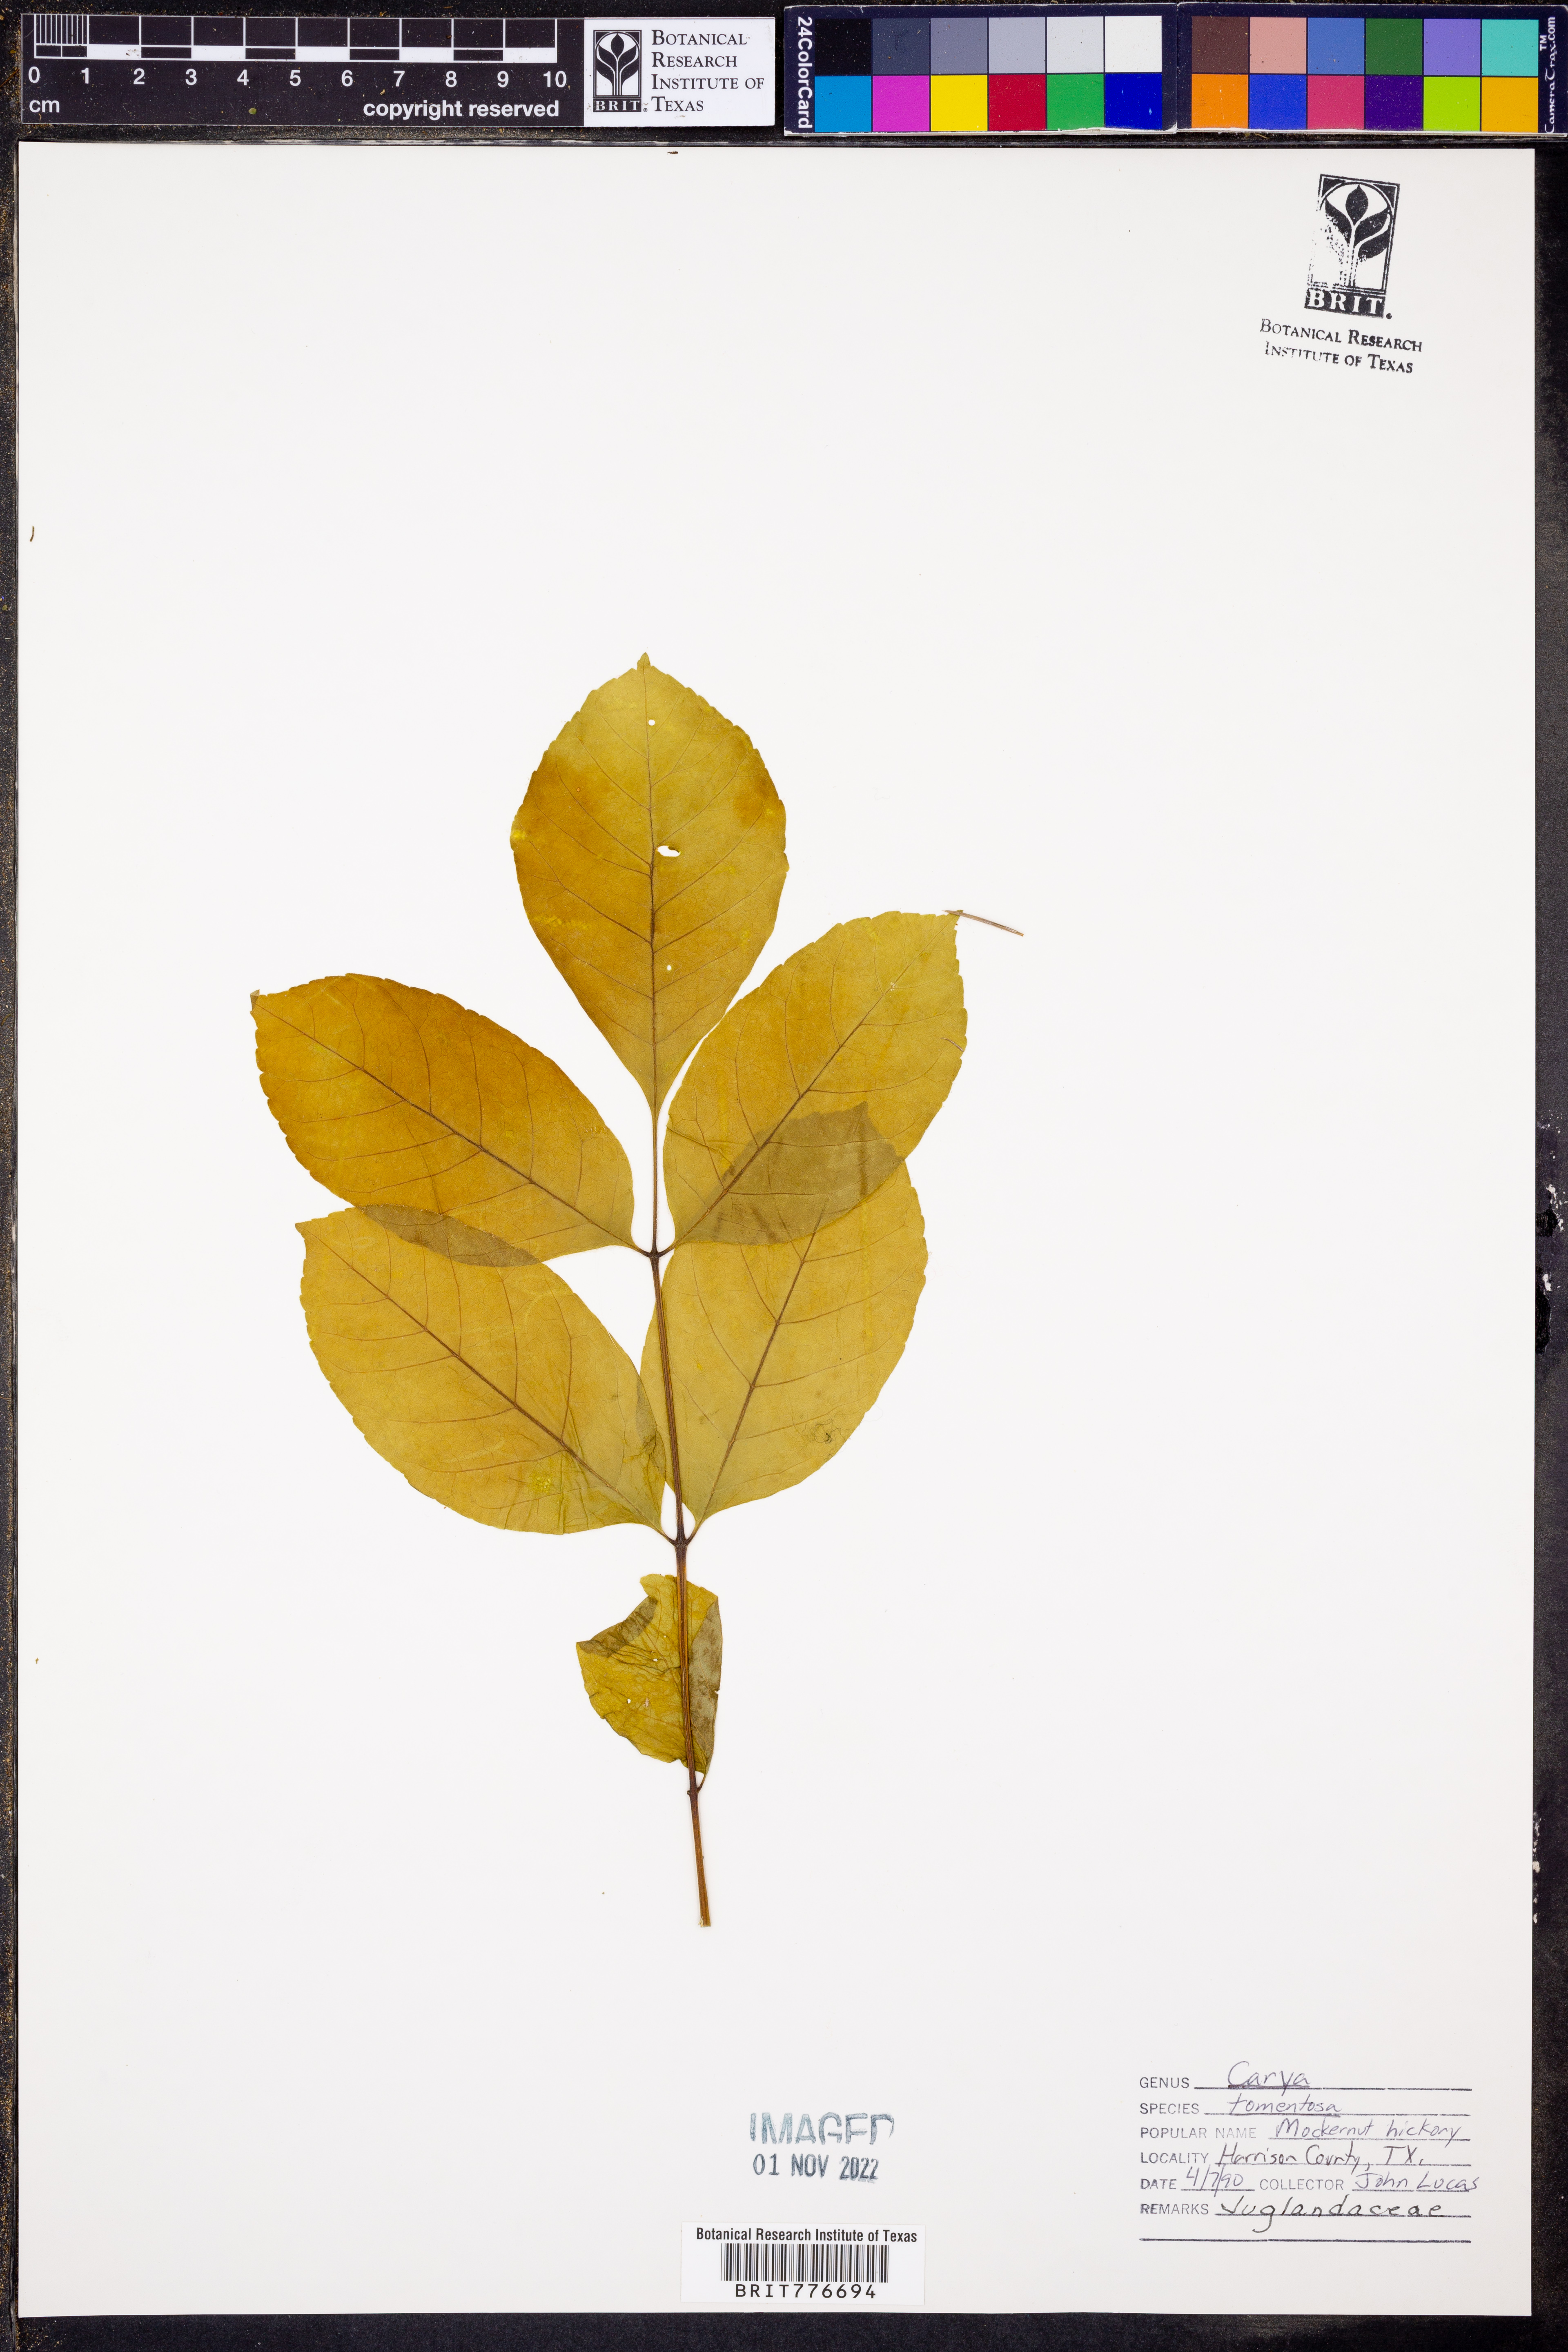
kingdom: Plantae
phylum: Tracheophyta
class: Magnoliopsida
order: Fagales
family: Juglandaceae
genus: Carya
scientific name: Carya alba
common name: Mockernut hickory
